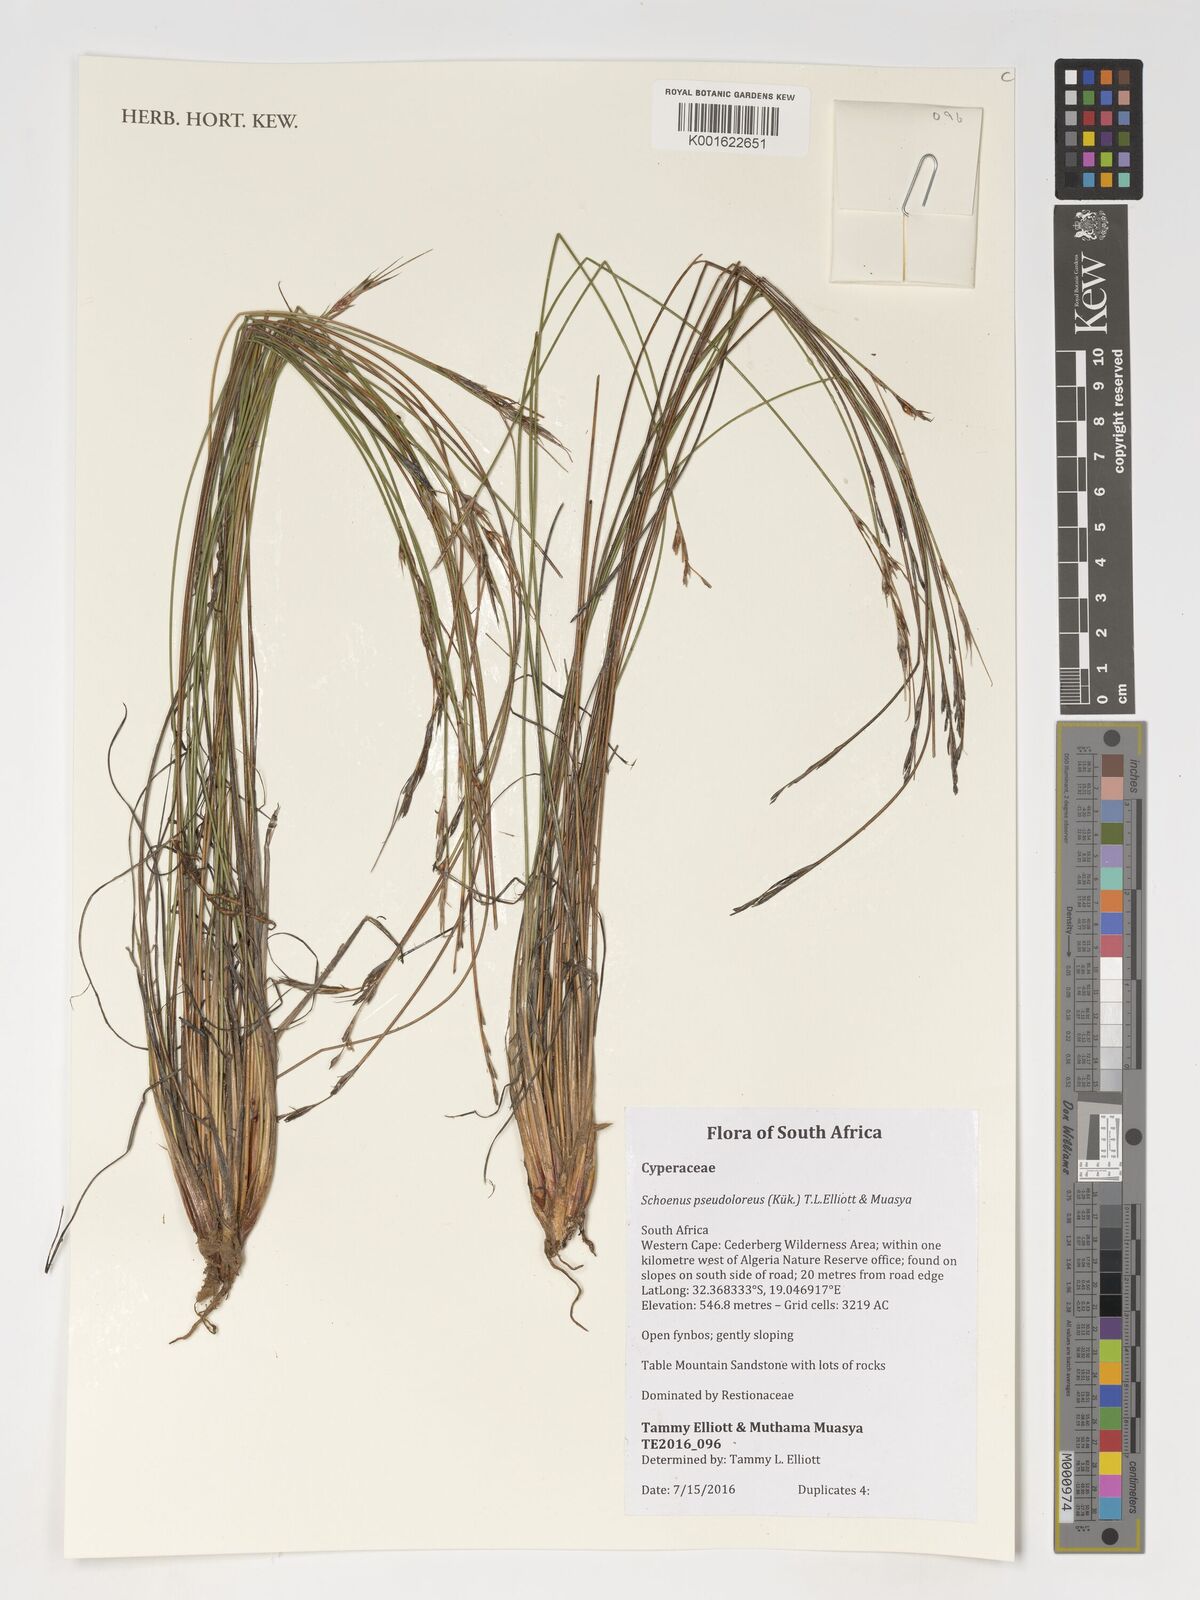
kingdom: Plantae
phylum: Tracheophyta
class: Liliopsida
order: Poales
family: Cyperaceae
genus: Schoenus
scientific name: Schoenus pseudoloreus
